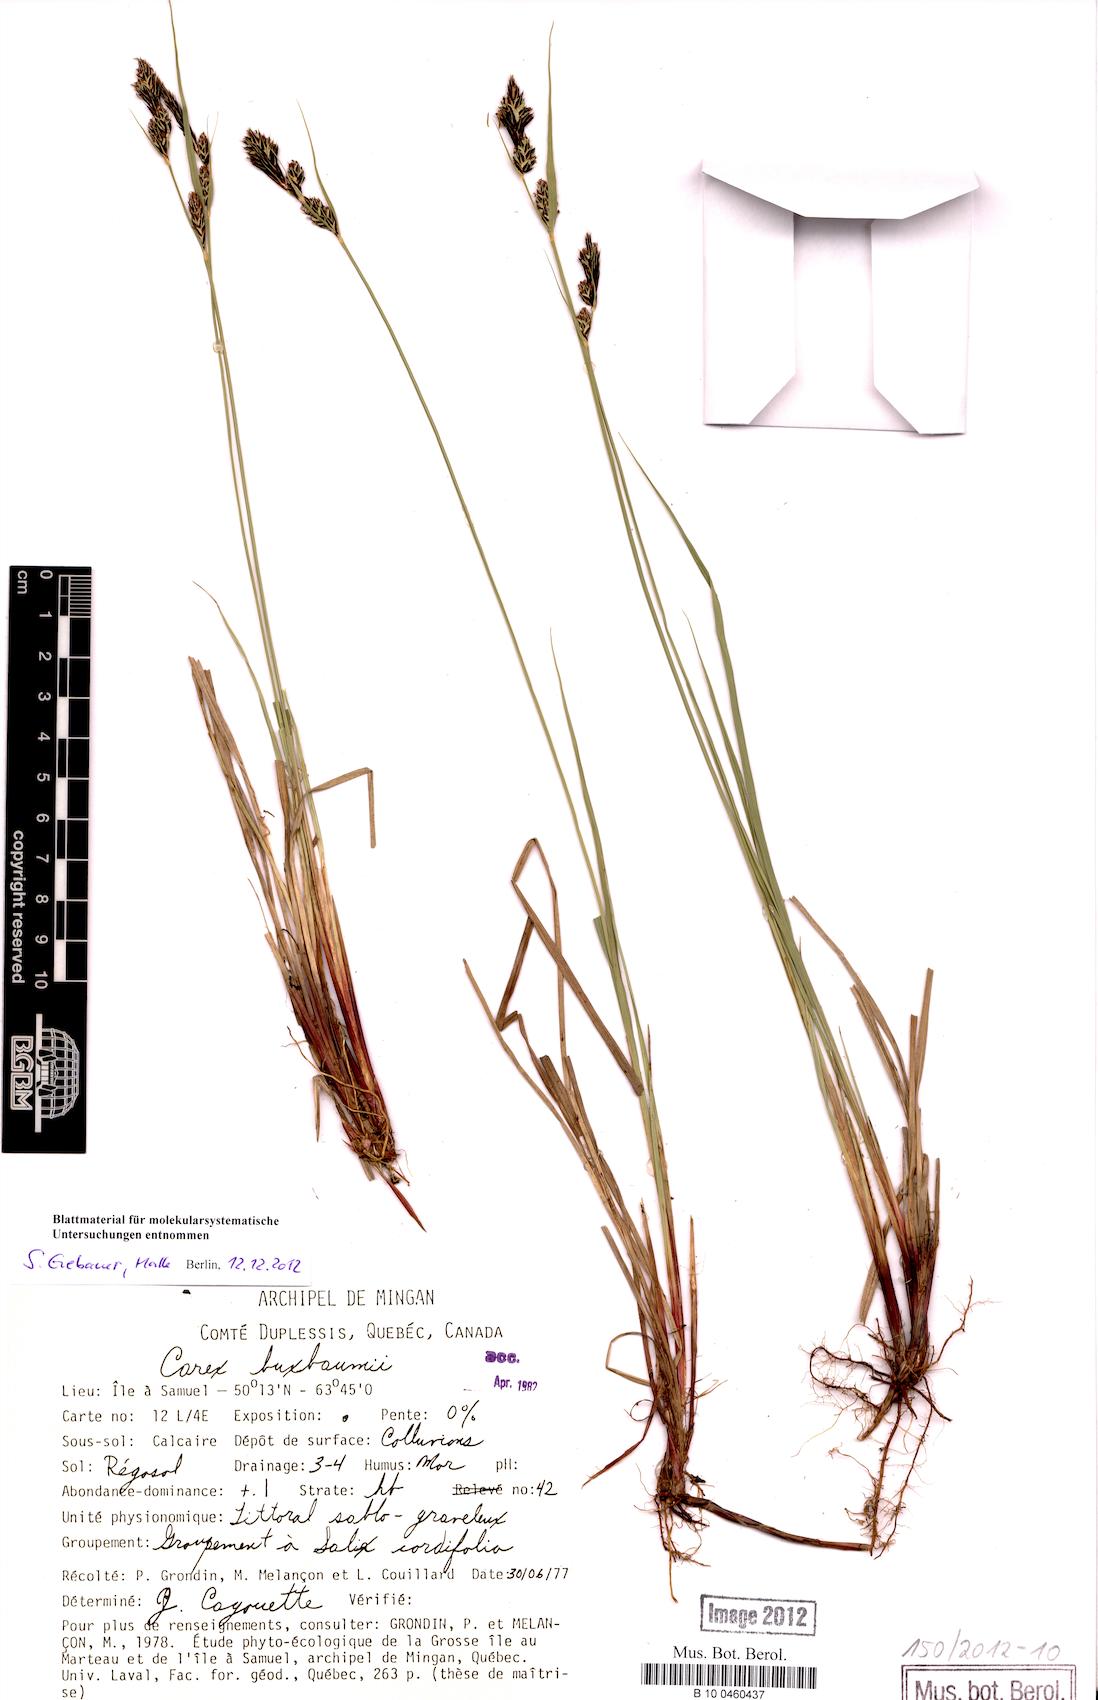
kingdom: Plantae
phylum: Tracheophyta
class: Liliopsida
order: Poales
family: Cyperaceae
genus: Carex
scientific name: Carex buxbaumii
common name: Club sedge
